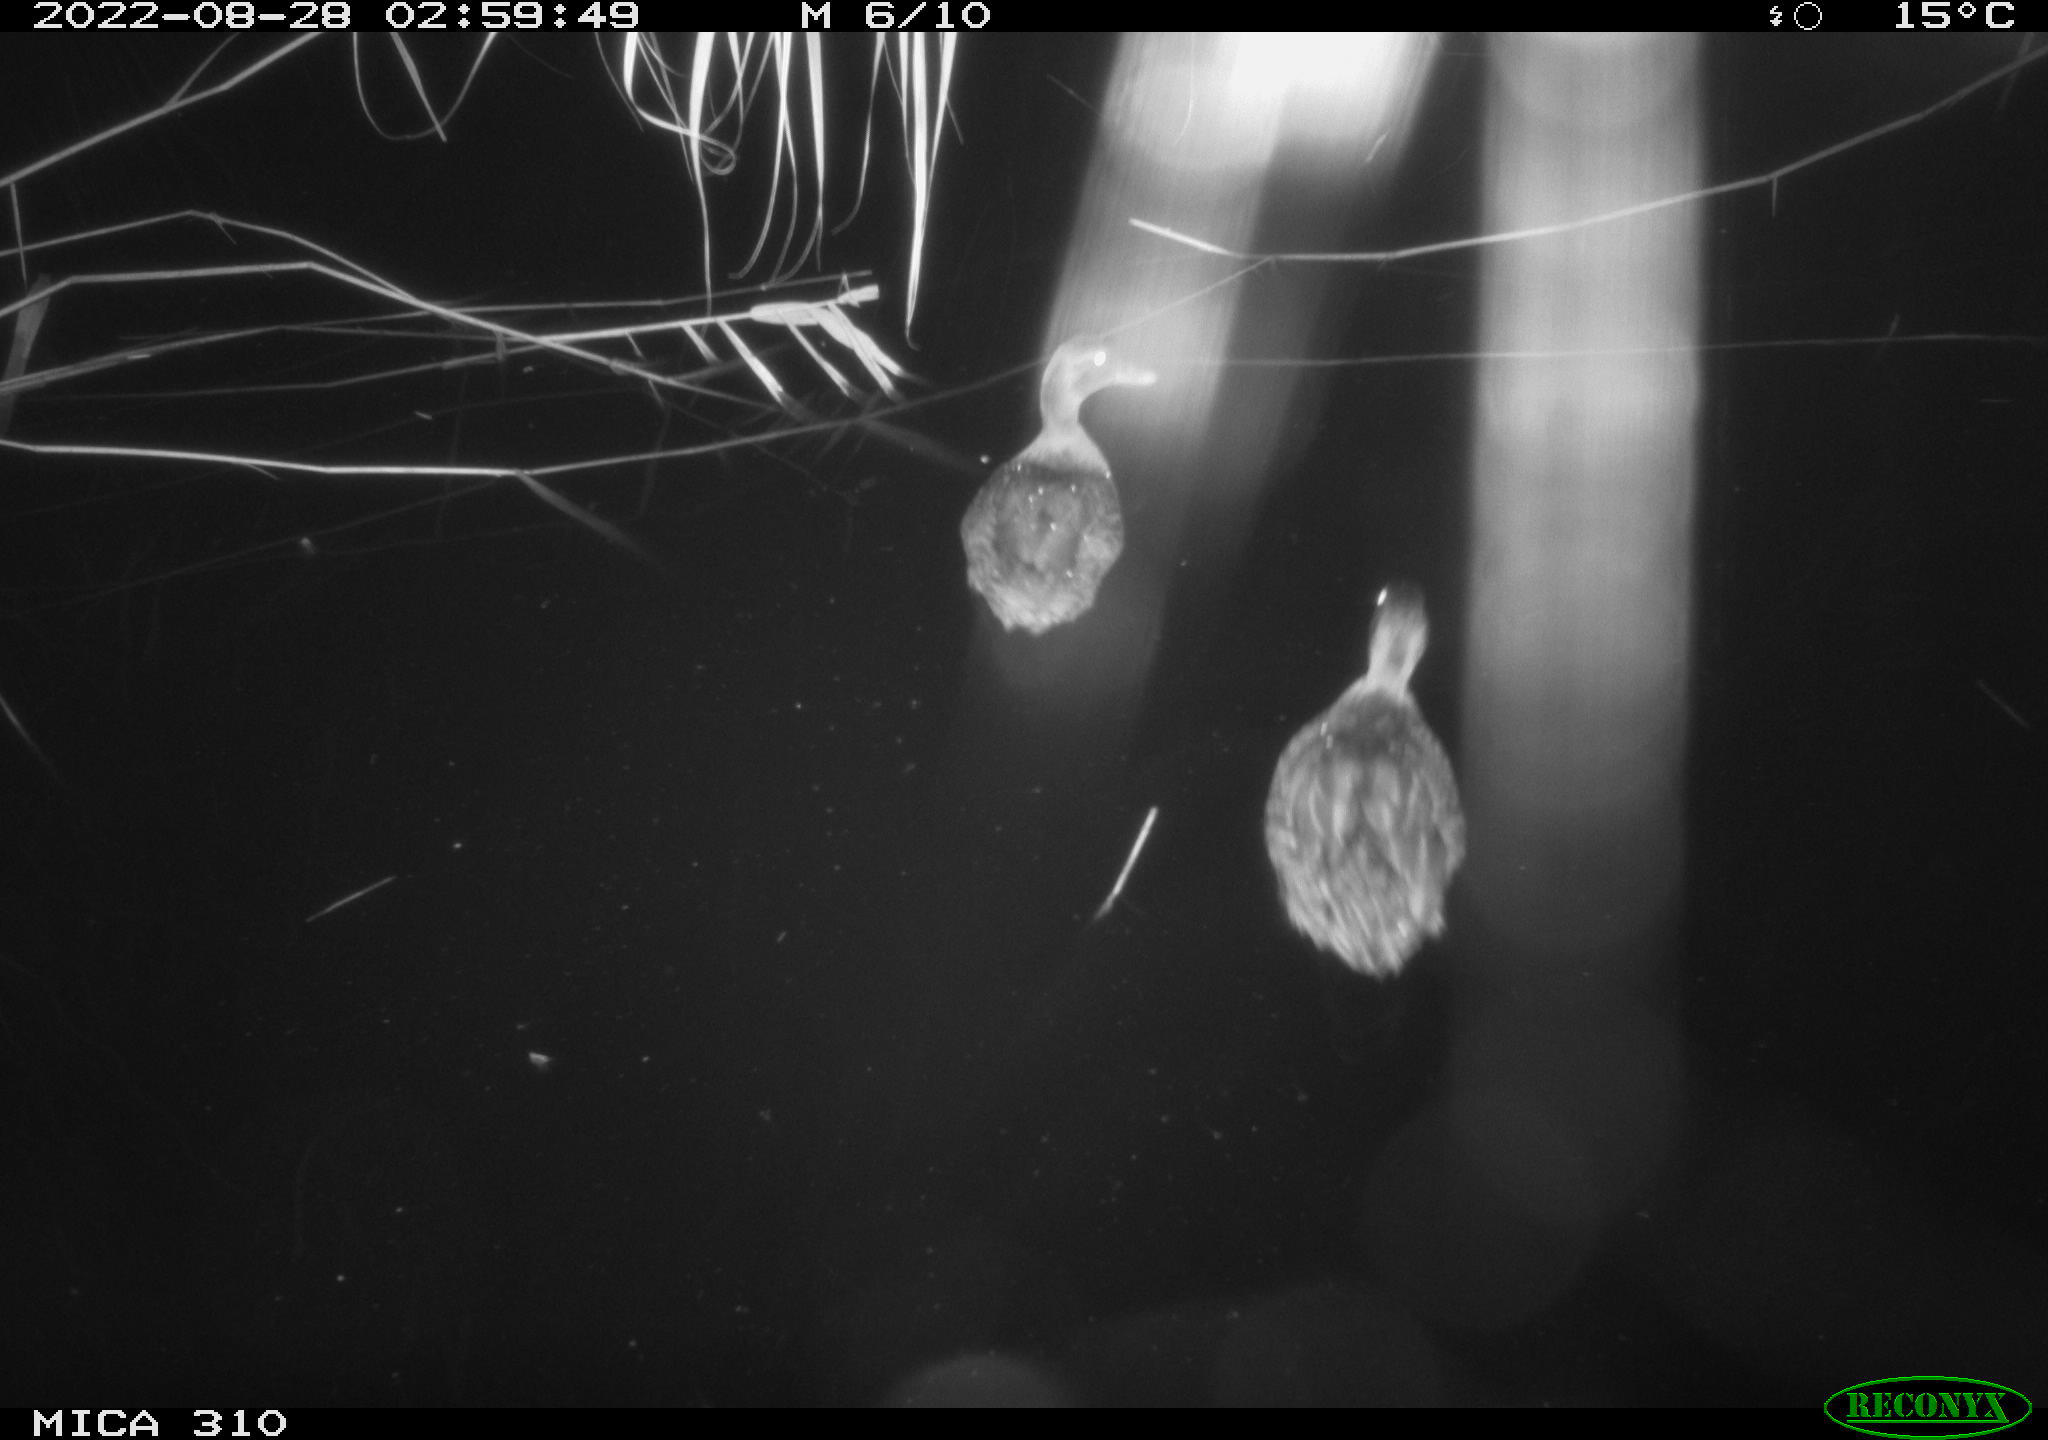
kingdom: Animalia
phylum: Chordata
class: Aves
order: Anseriformes
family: Anatidae
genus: Mareca
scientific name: Mareca strepera
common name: Gadwall
